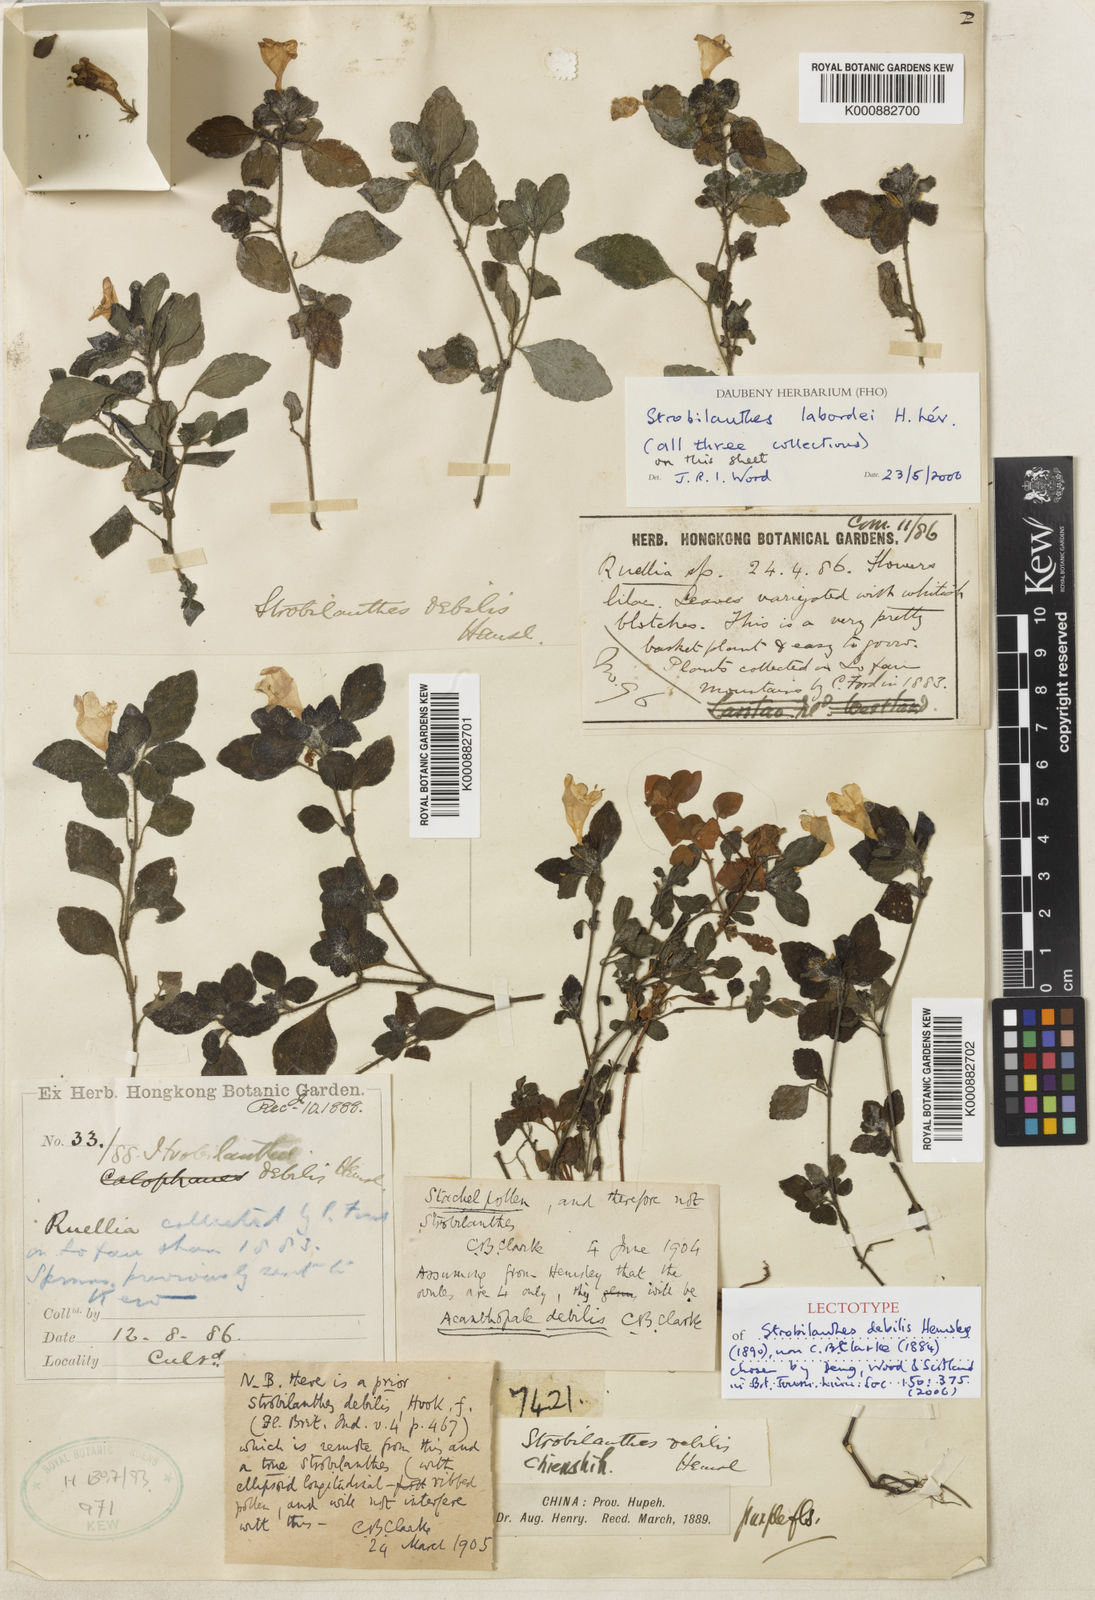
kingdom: Plantae
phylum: Tracheophyta
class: Magnoliopsida
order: Lamiales
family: Acanthaceae
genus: Strobilanthes
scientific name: Strobilanthes
